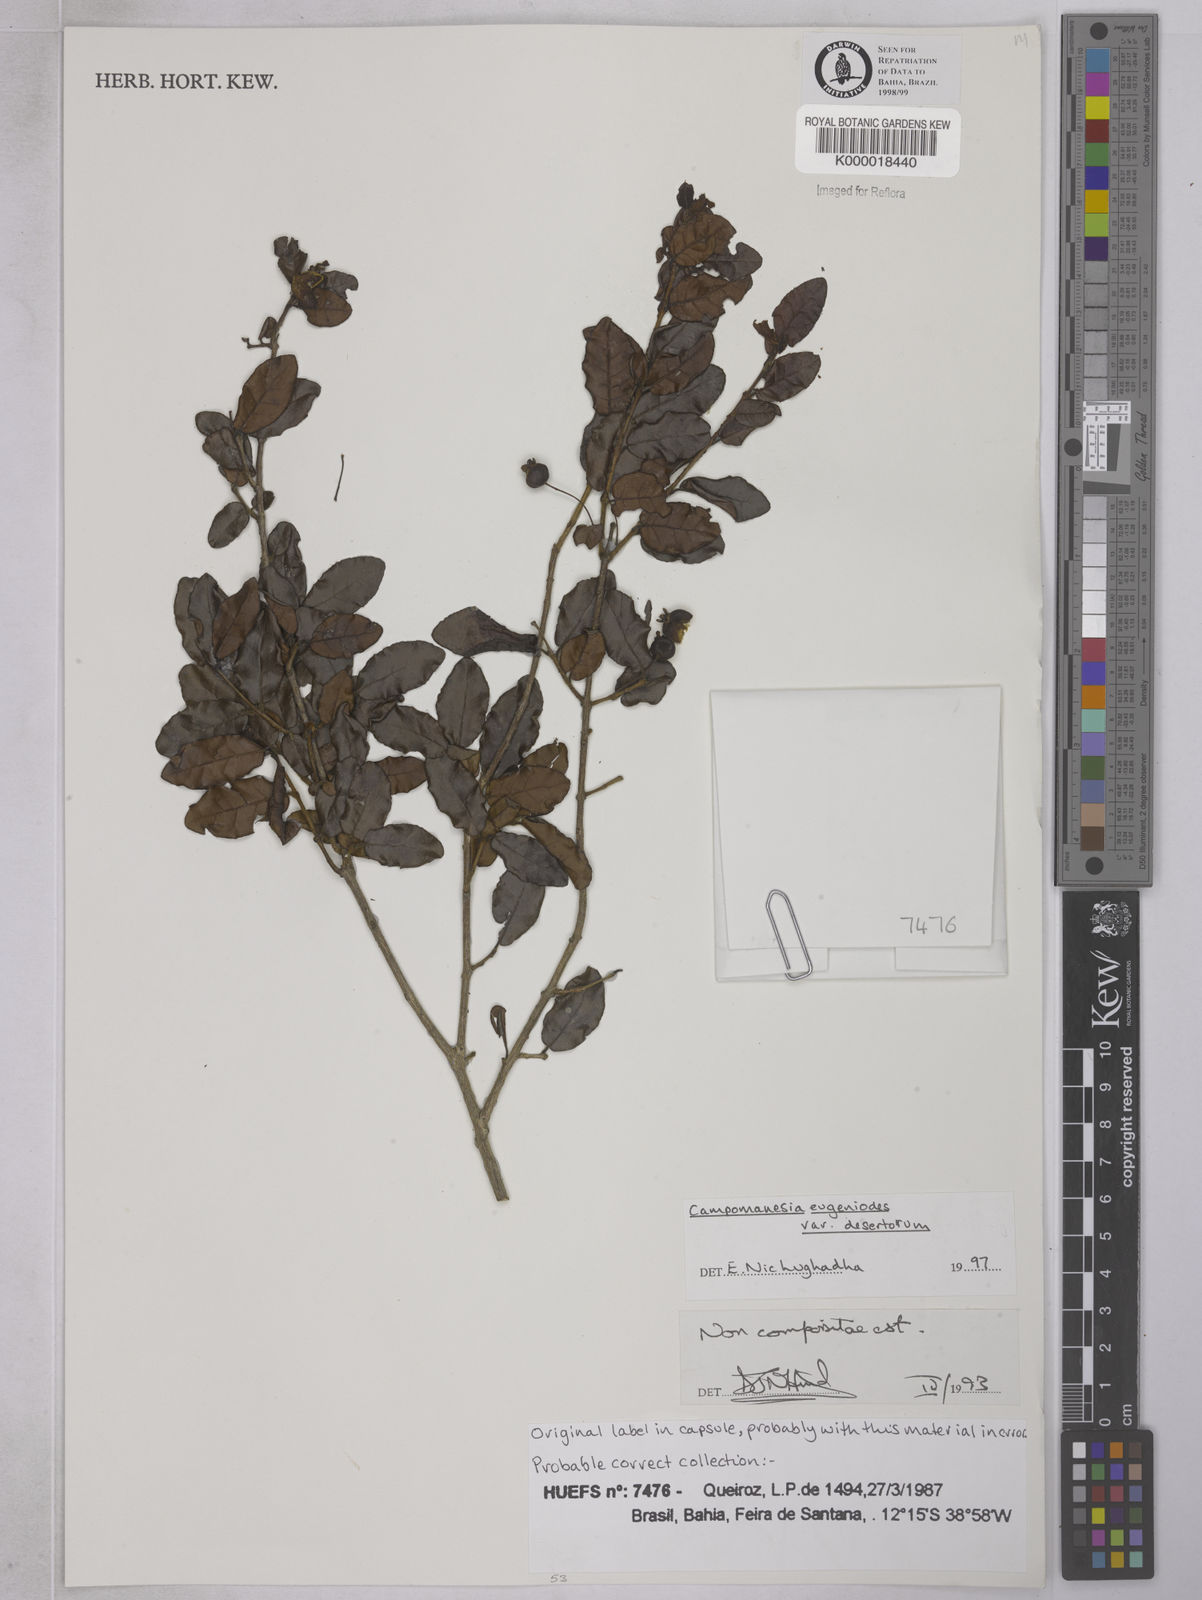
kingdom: Plantae
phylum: Tracheophyta
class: Magnoliopsida
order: Myrtales
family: Myrtaceae
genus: Campomanesia
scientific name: Campomanesia eugenioides
